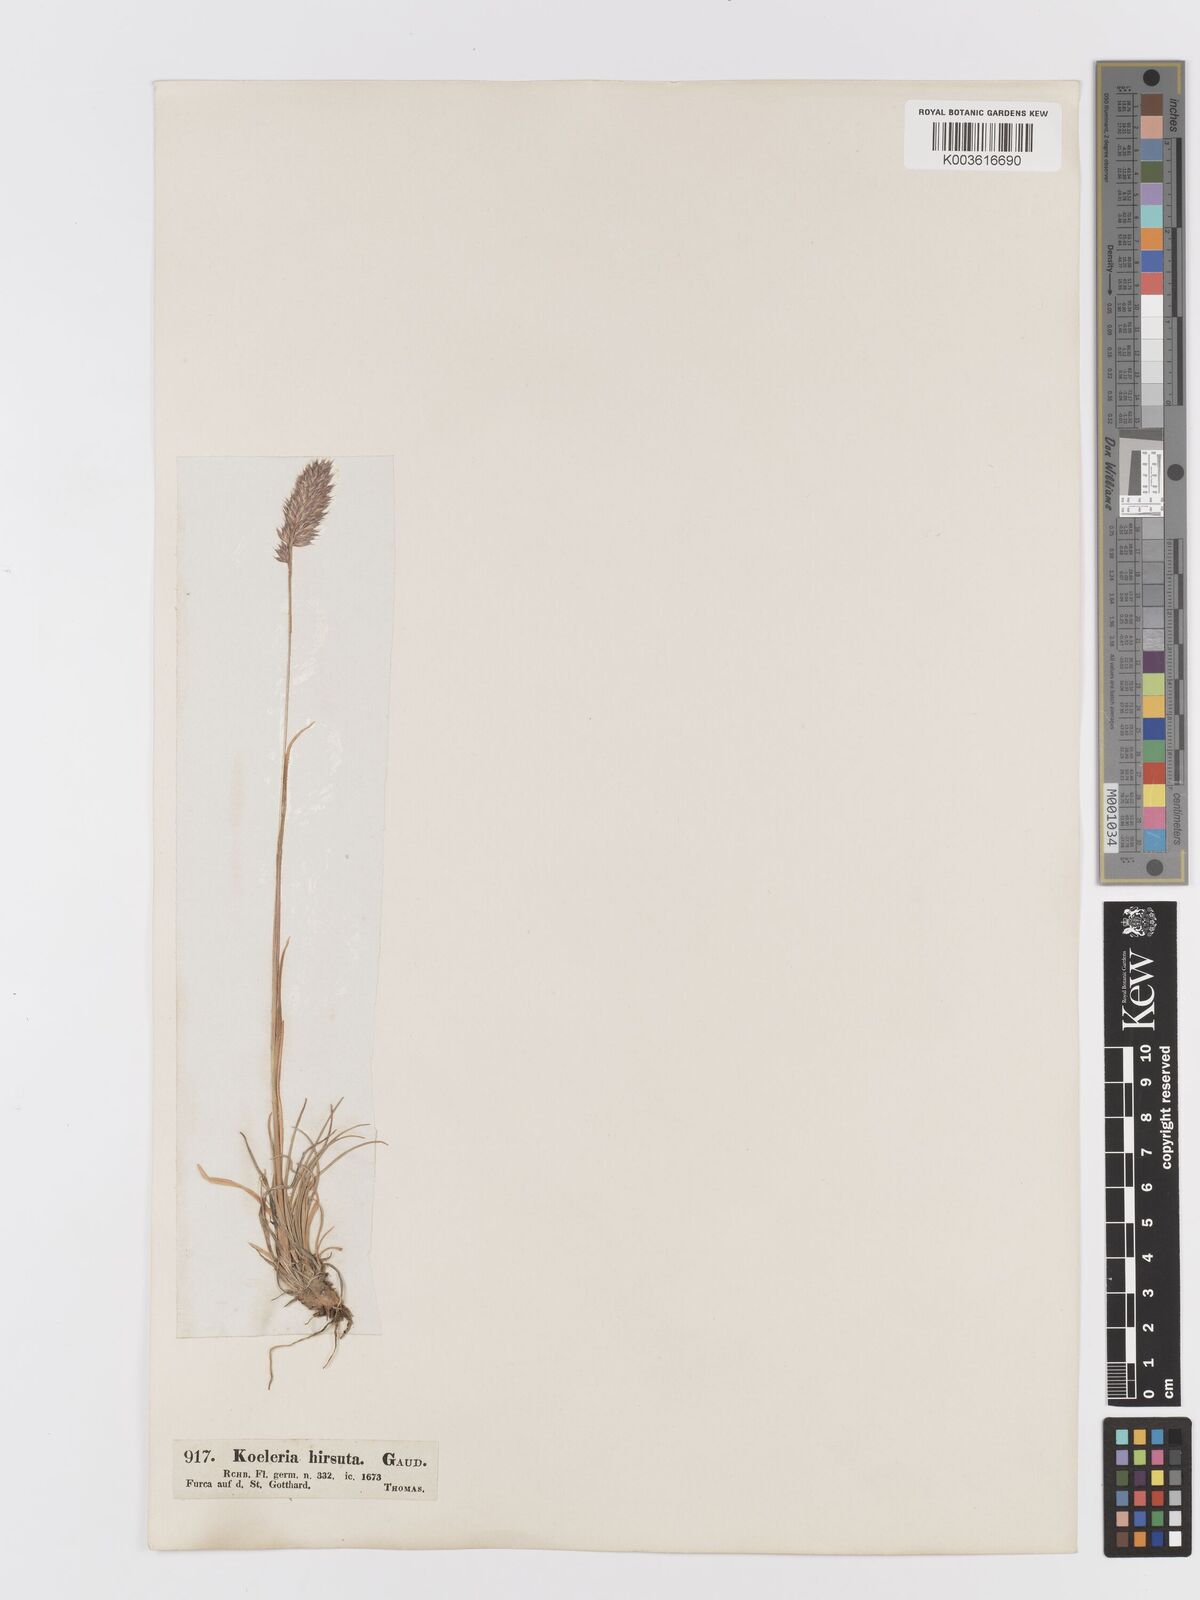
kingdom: Plantae
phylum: Tracheophyta
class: Liliopsida
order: Poales
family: Poaceae
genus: Koeleria
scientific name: Koeleria hirsuta
